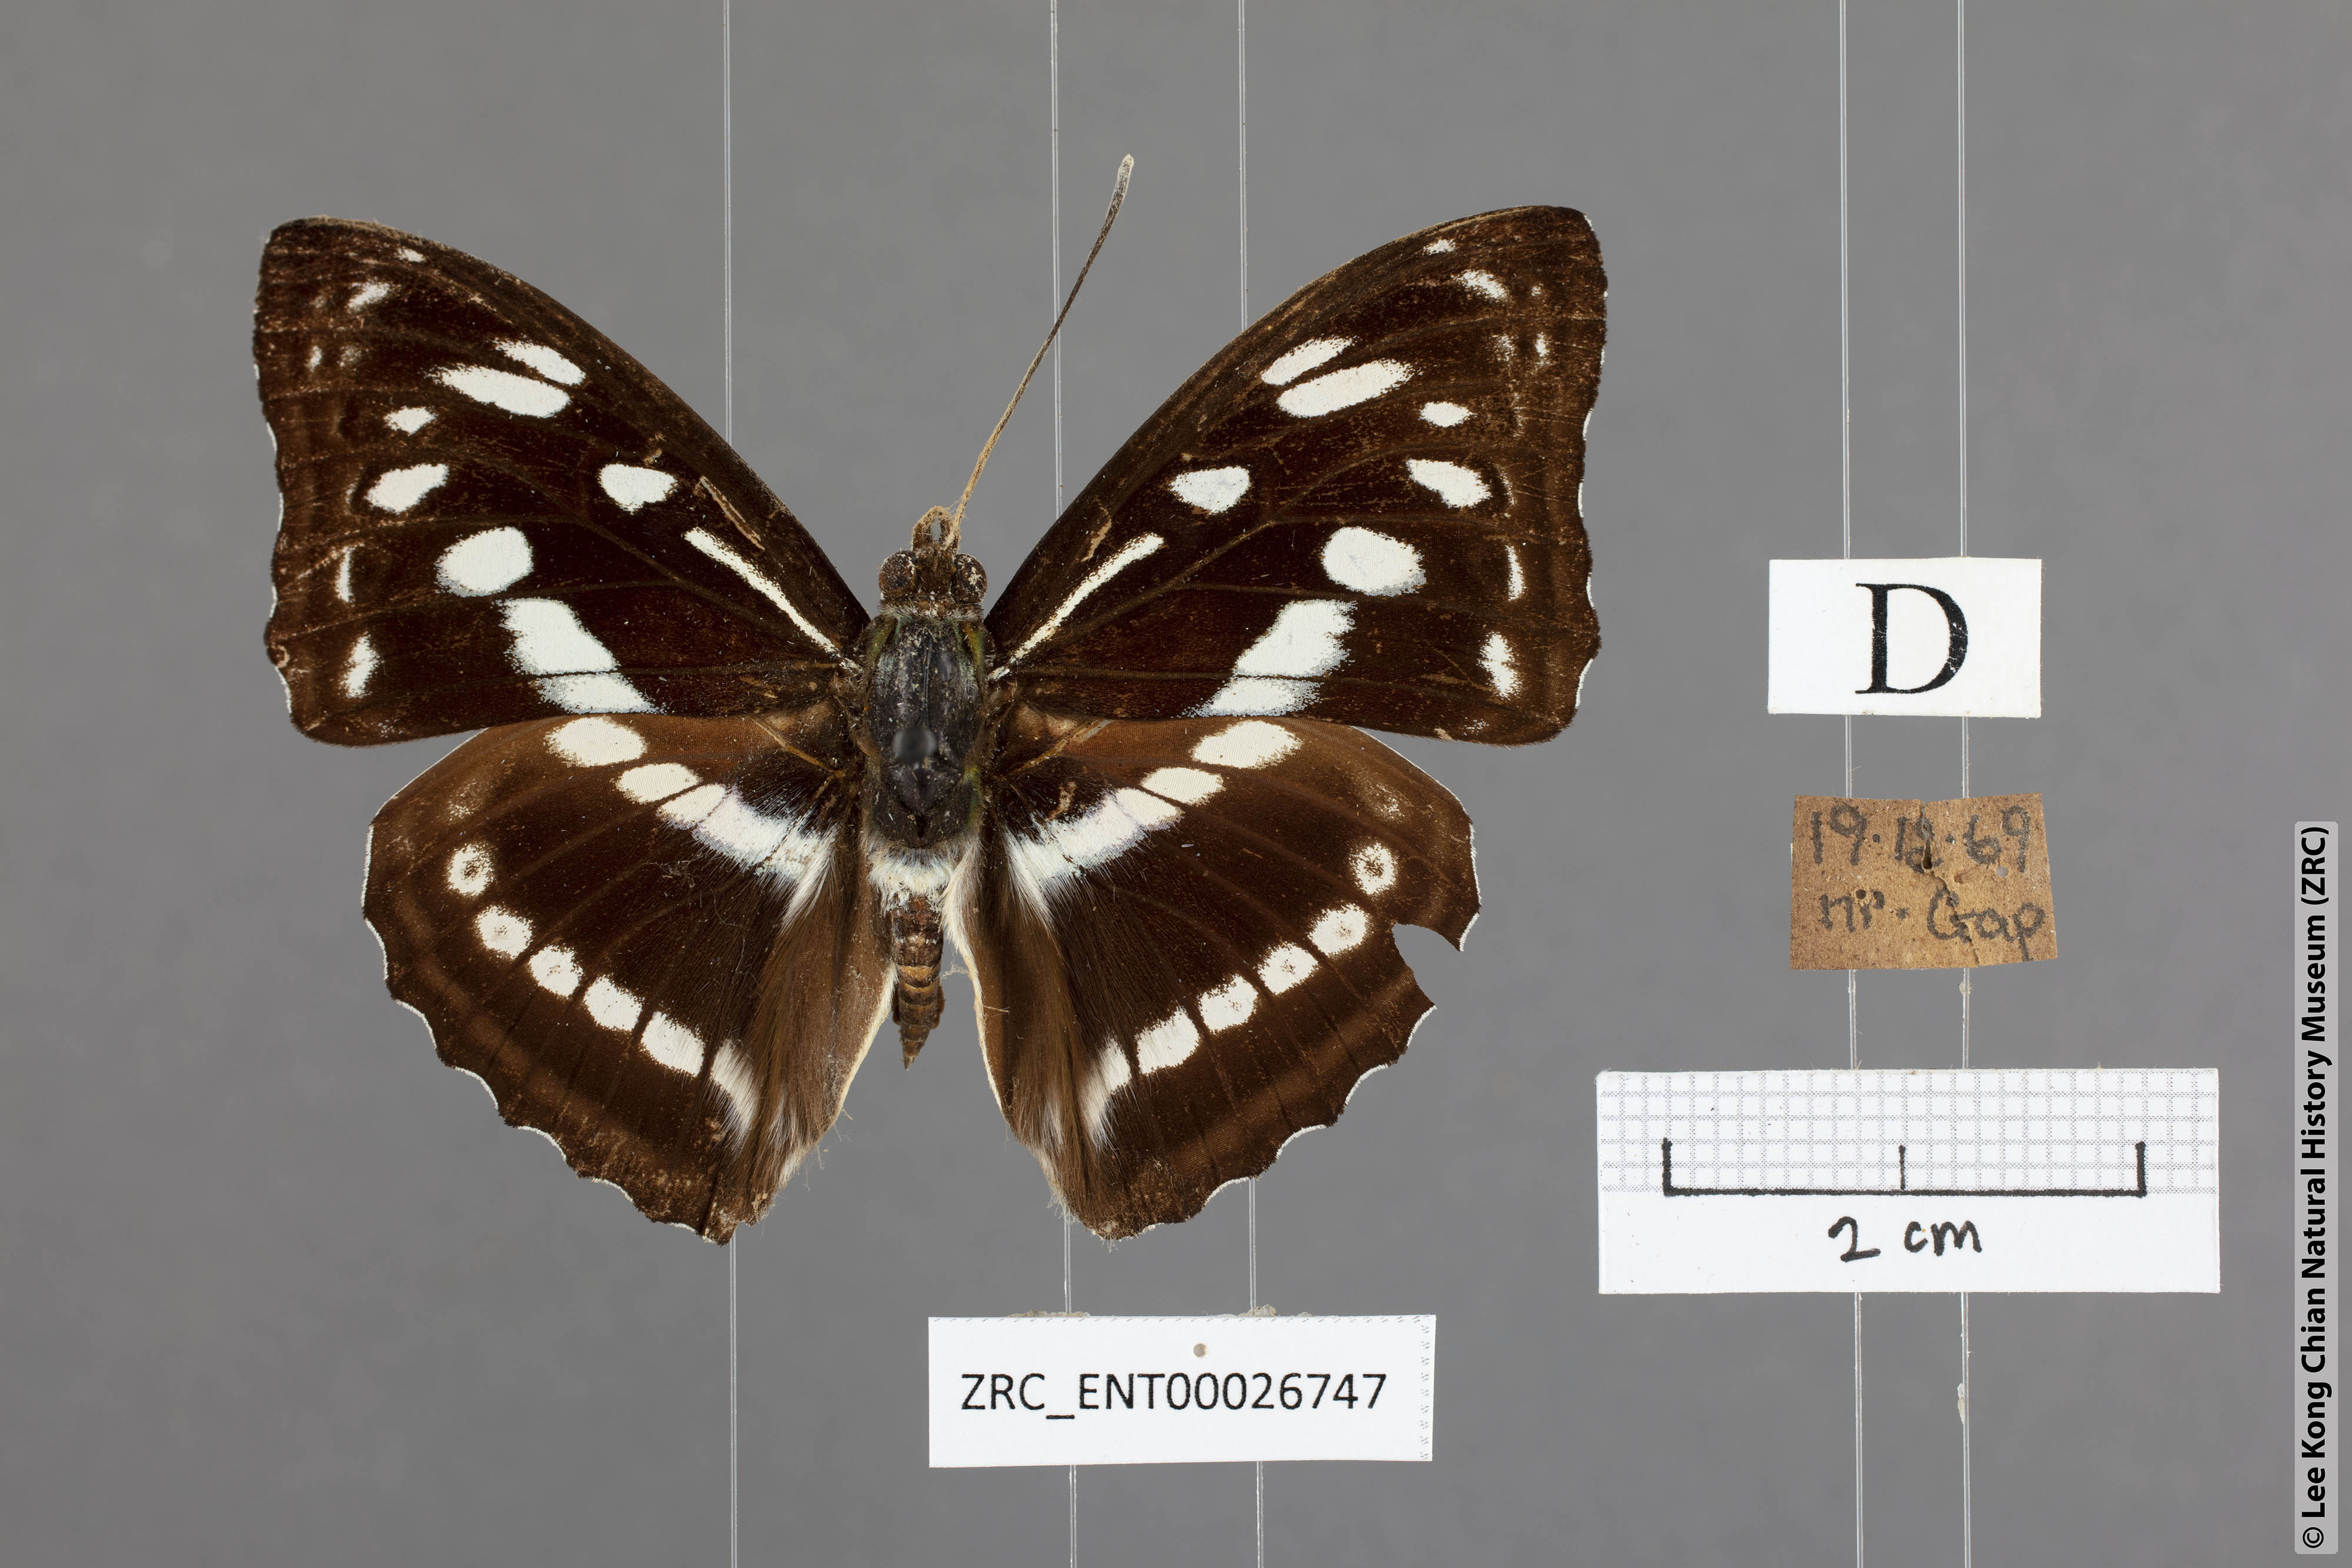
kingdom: Animalia
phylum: Arthropoda
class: Insecta
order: Lepidoptera
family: Nymphalidae
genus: Parathyma
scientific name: Parathyma asura
